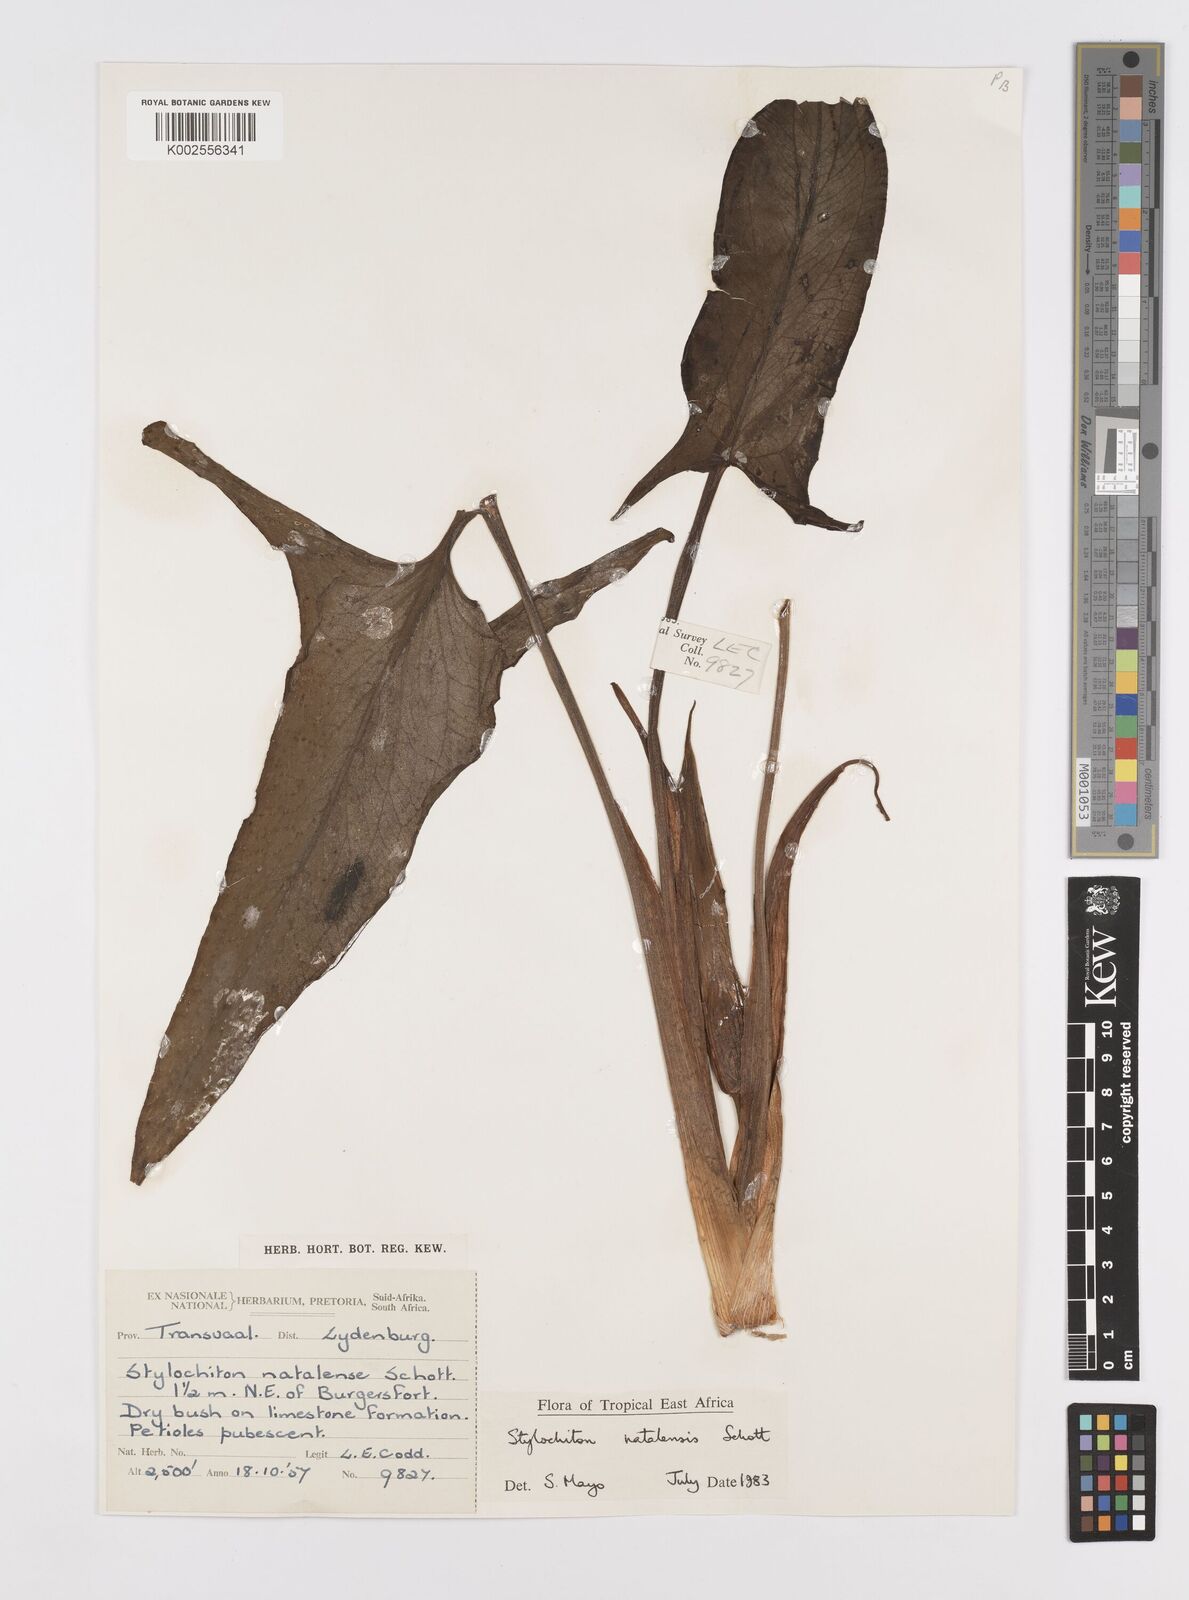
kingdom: Plantae
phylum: Tracheophyta
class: Liliopsida
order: Alismatales
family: Araceae
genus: Stylochaeton
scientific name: Stylochaeton natalense
